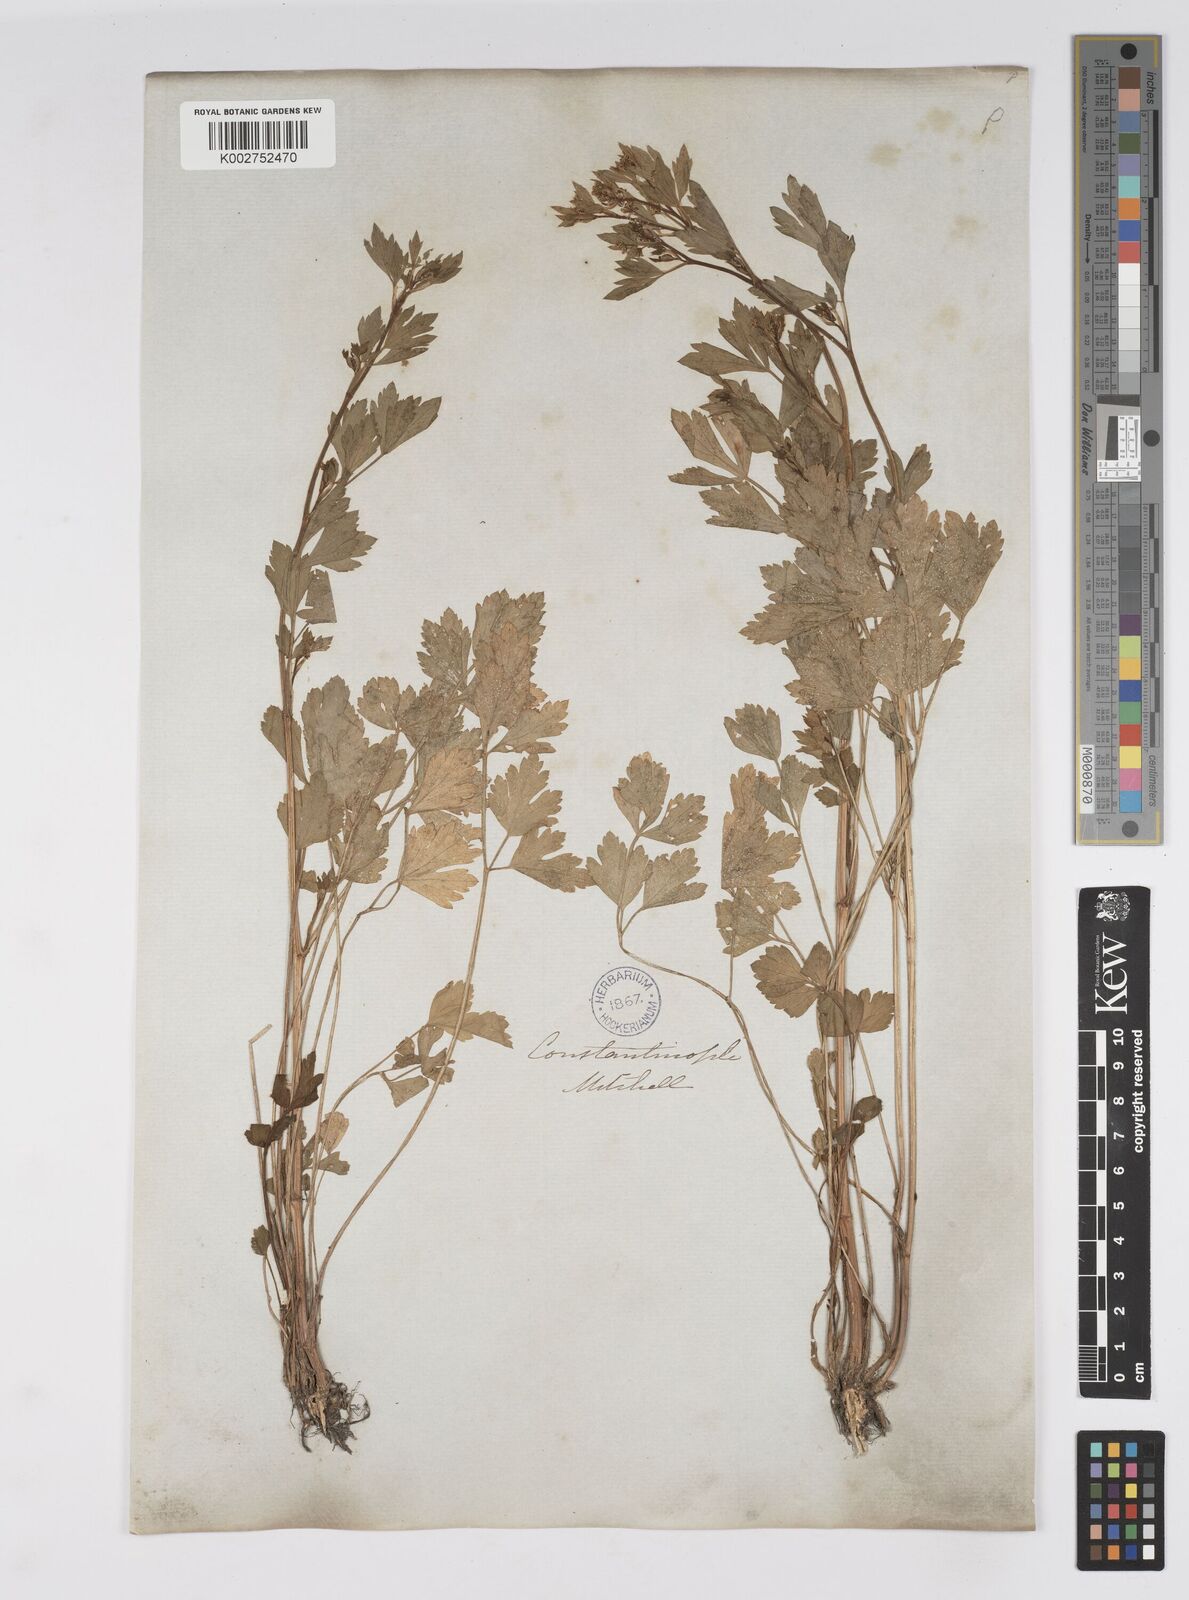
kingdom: Plantae
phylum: Tracheophyta
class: Magnoliopsida
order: Apiales
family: Apiaceae
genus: Apium
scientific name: Apium graveolens
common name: Wild celery
